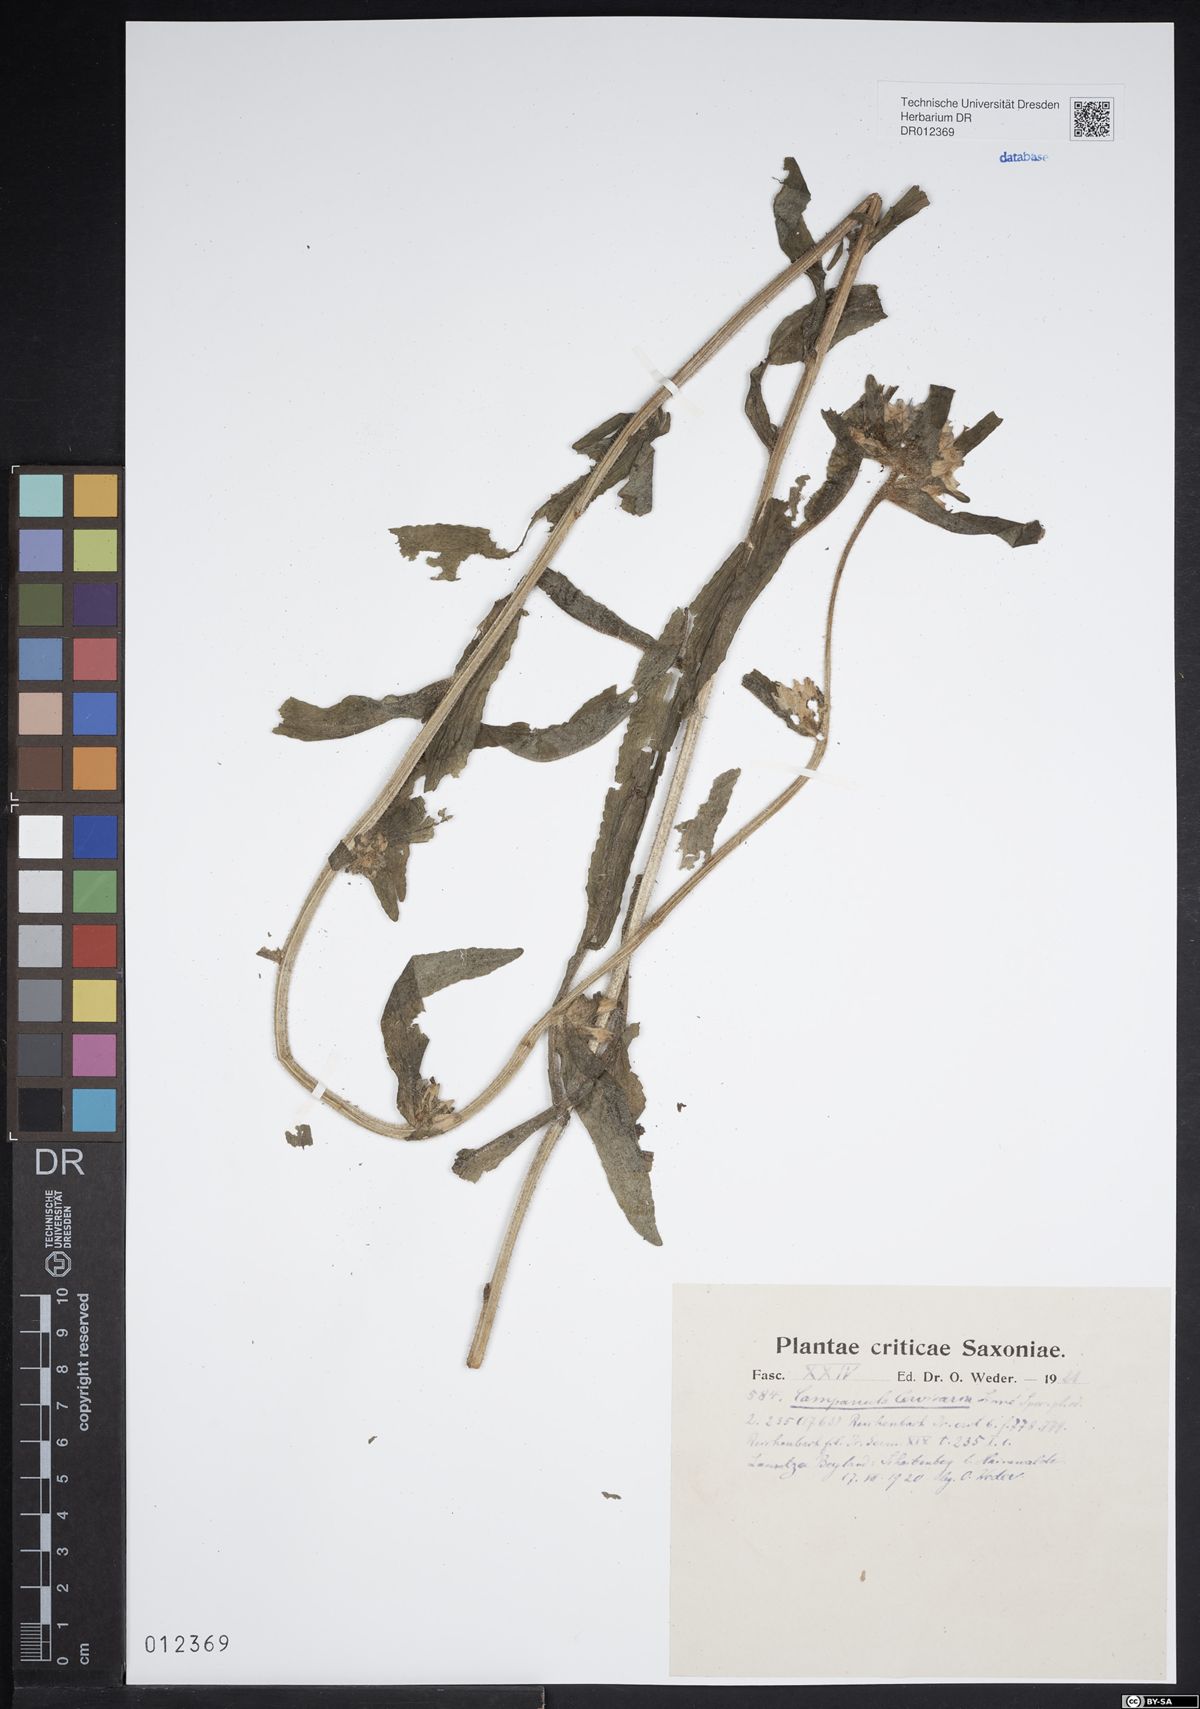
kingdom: Plantae
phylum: Tracheophyta
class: Magnoliopsida
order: Asterales
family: Campanulaceae
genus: Campanula
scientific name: Campanula cervicaria
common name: Bristly bellflower
